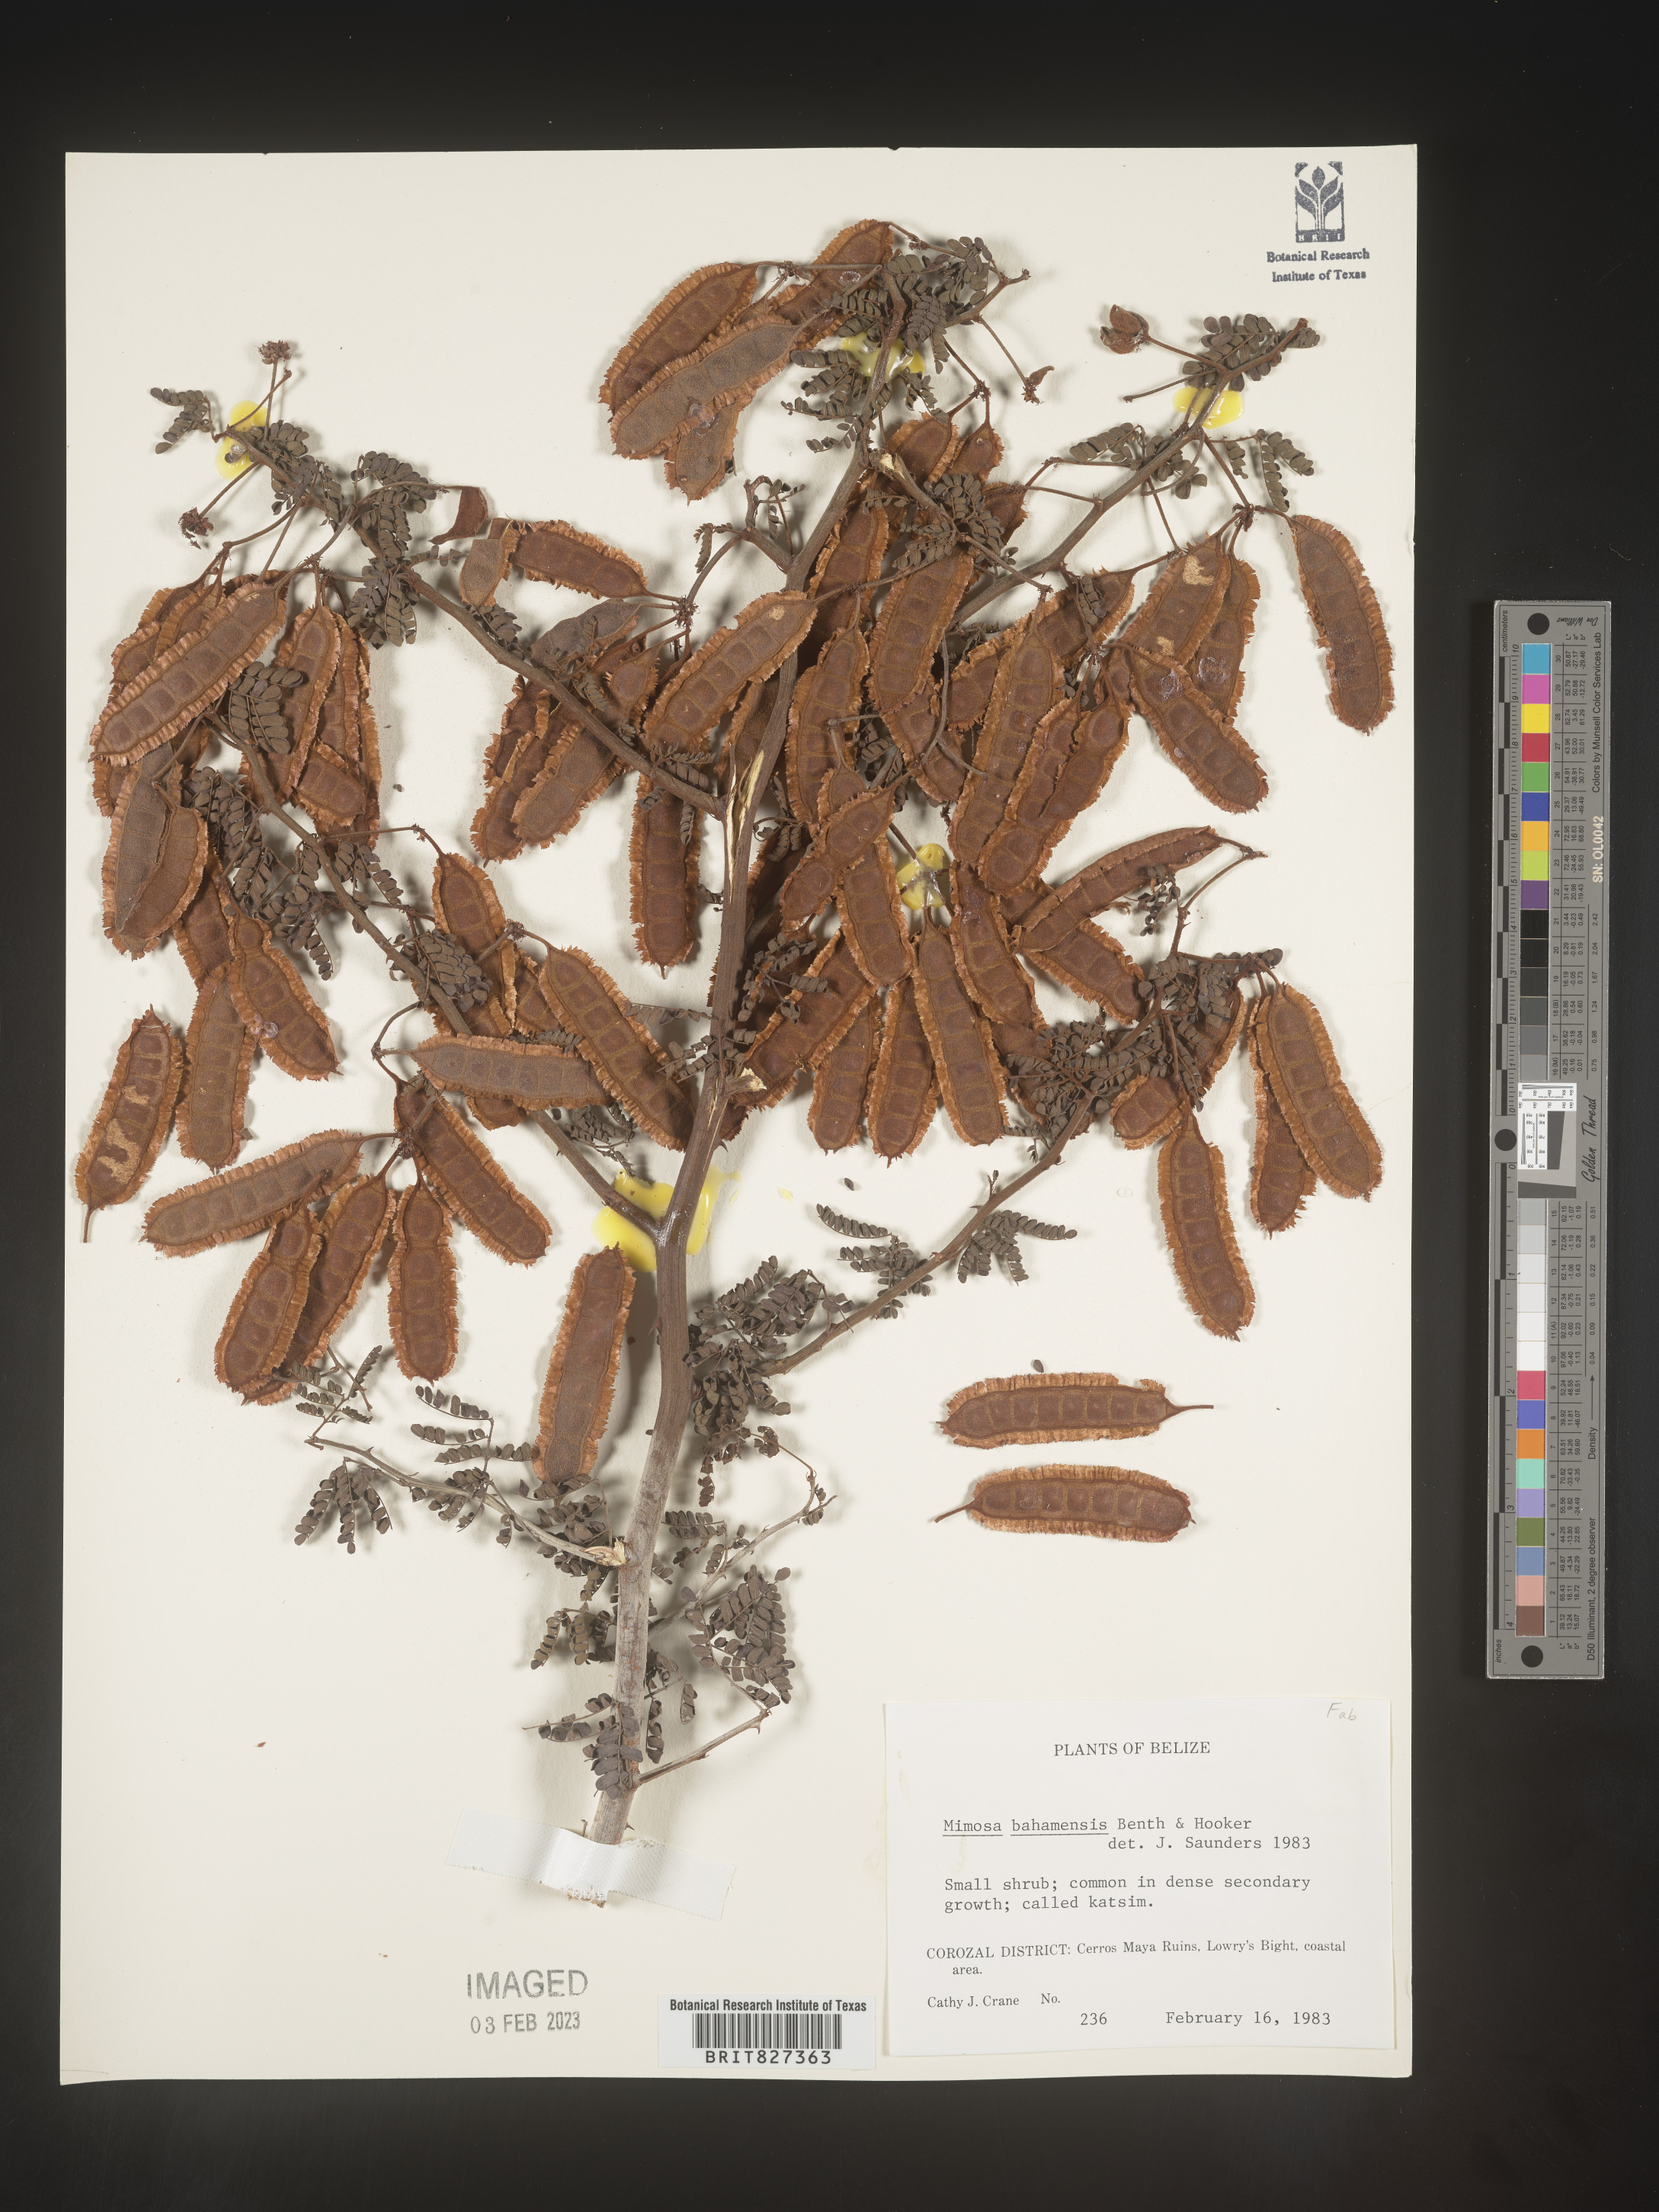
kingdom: Plantae
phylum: Tracheophyta
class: Magnoliopsida
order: Fabales
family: Fabaceae
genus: Mimosa
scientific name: Mimosa
